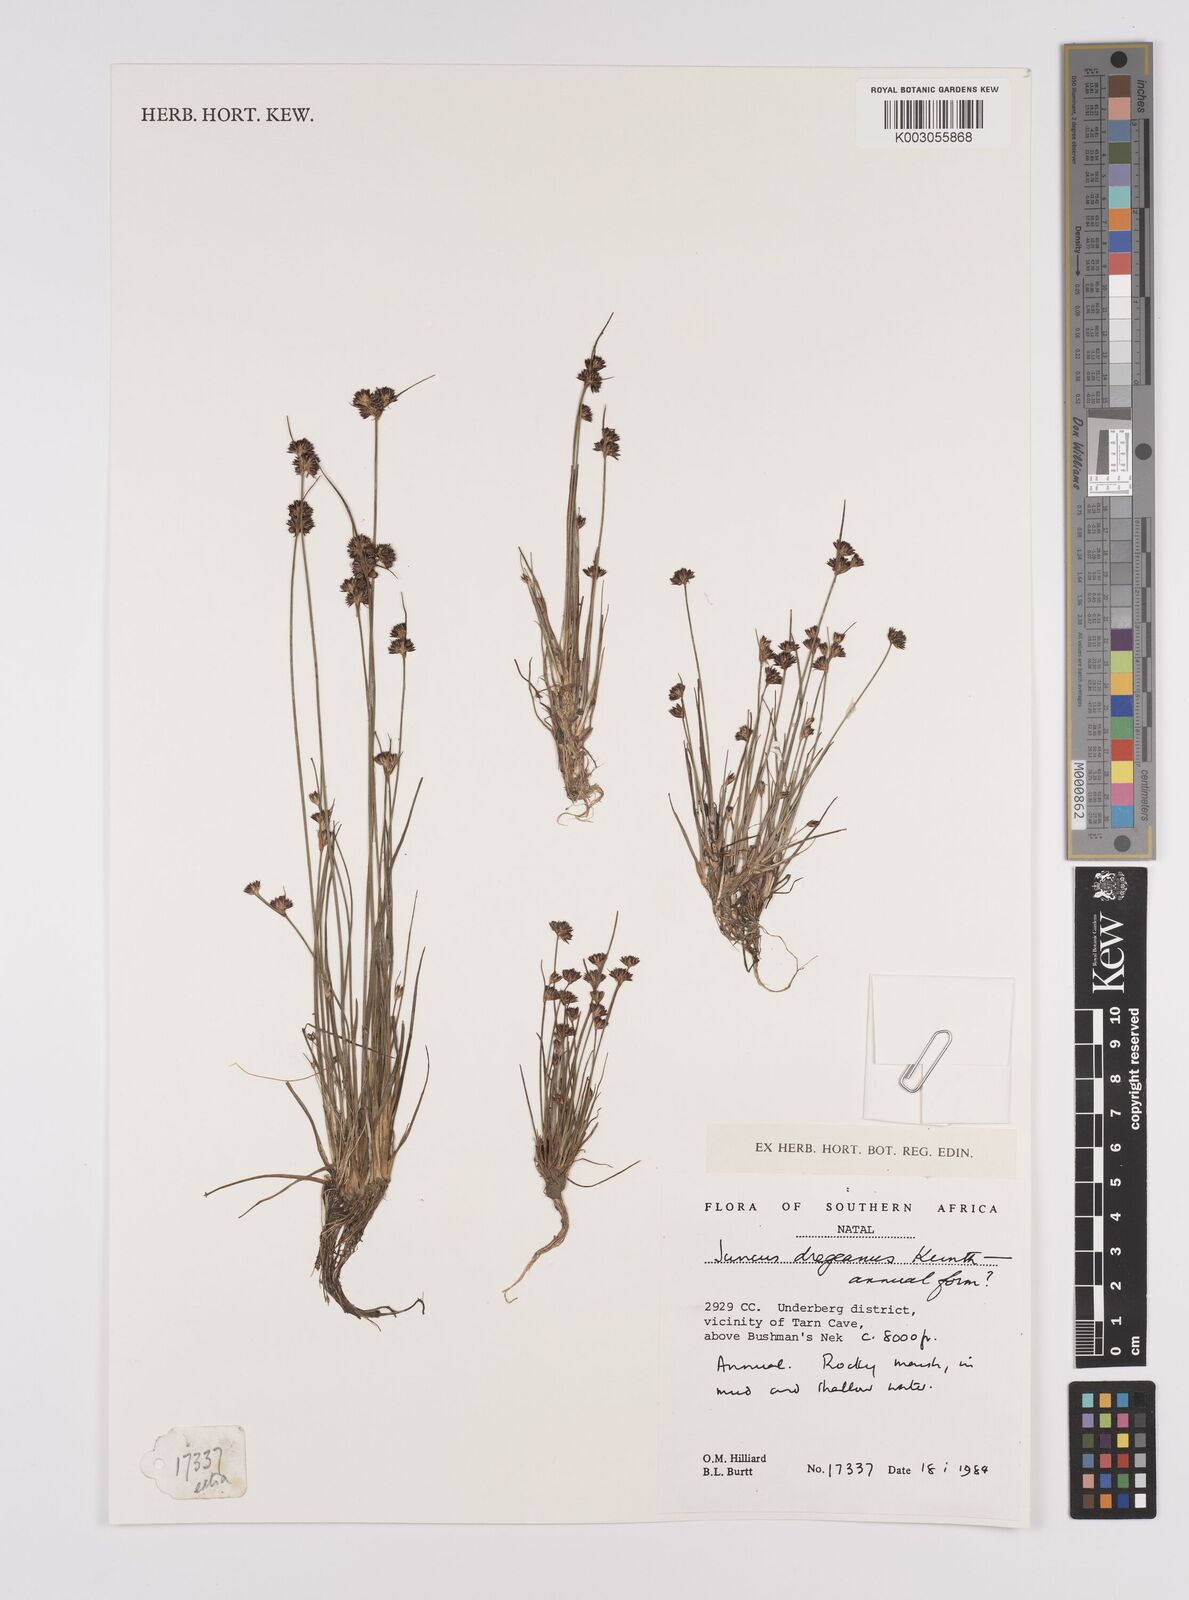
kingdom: Plantae
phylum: Tracheophyta
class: Liliopsida
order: Poales
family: Juncaceae
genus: Juncus
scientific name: Juncus dregeanus
